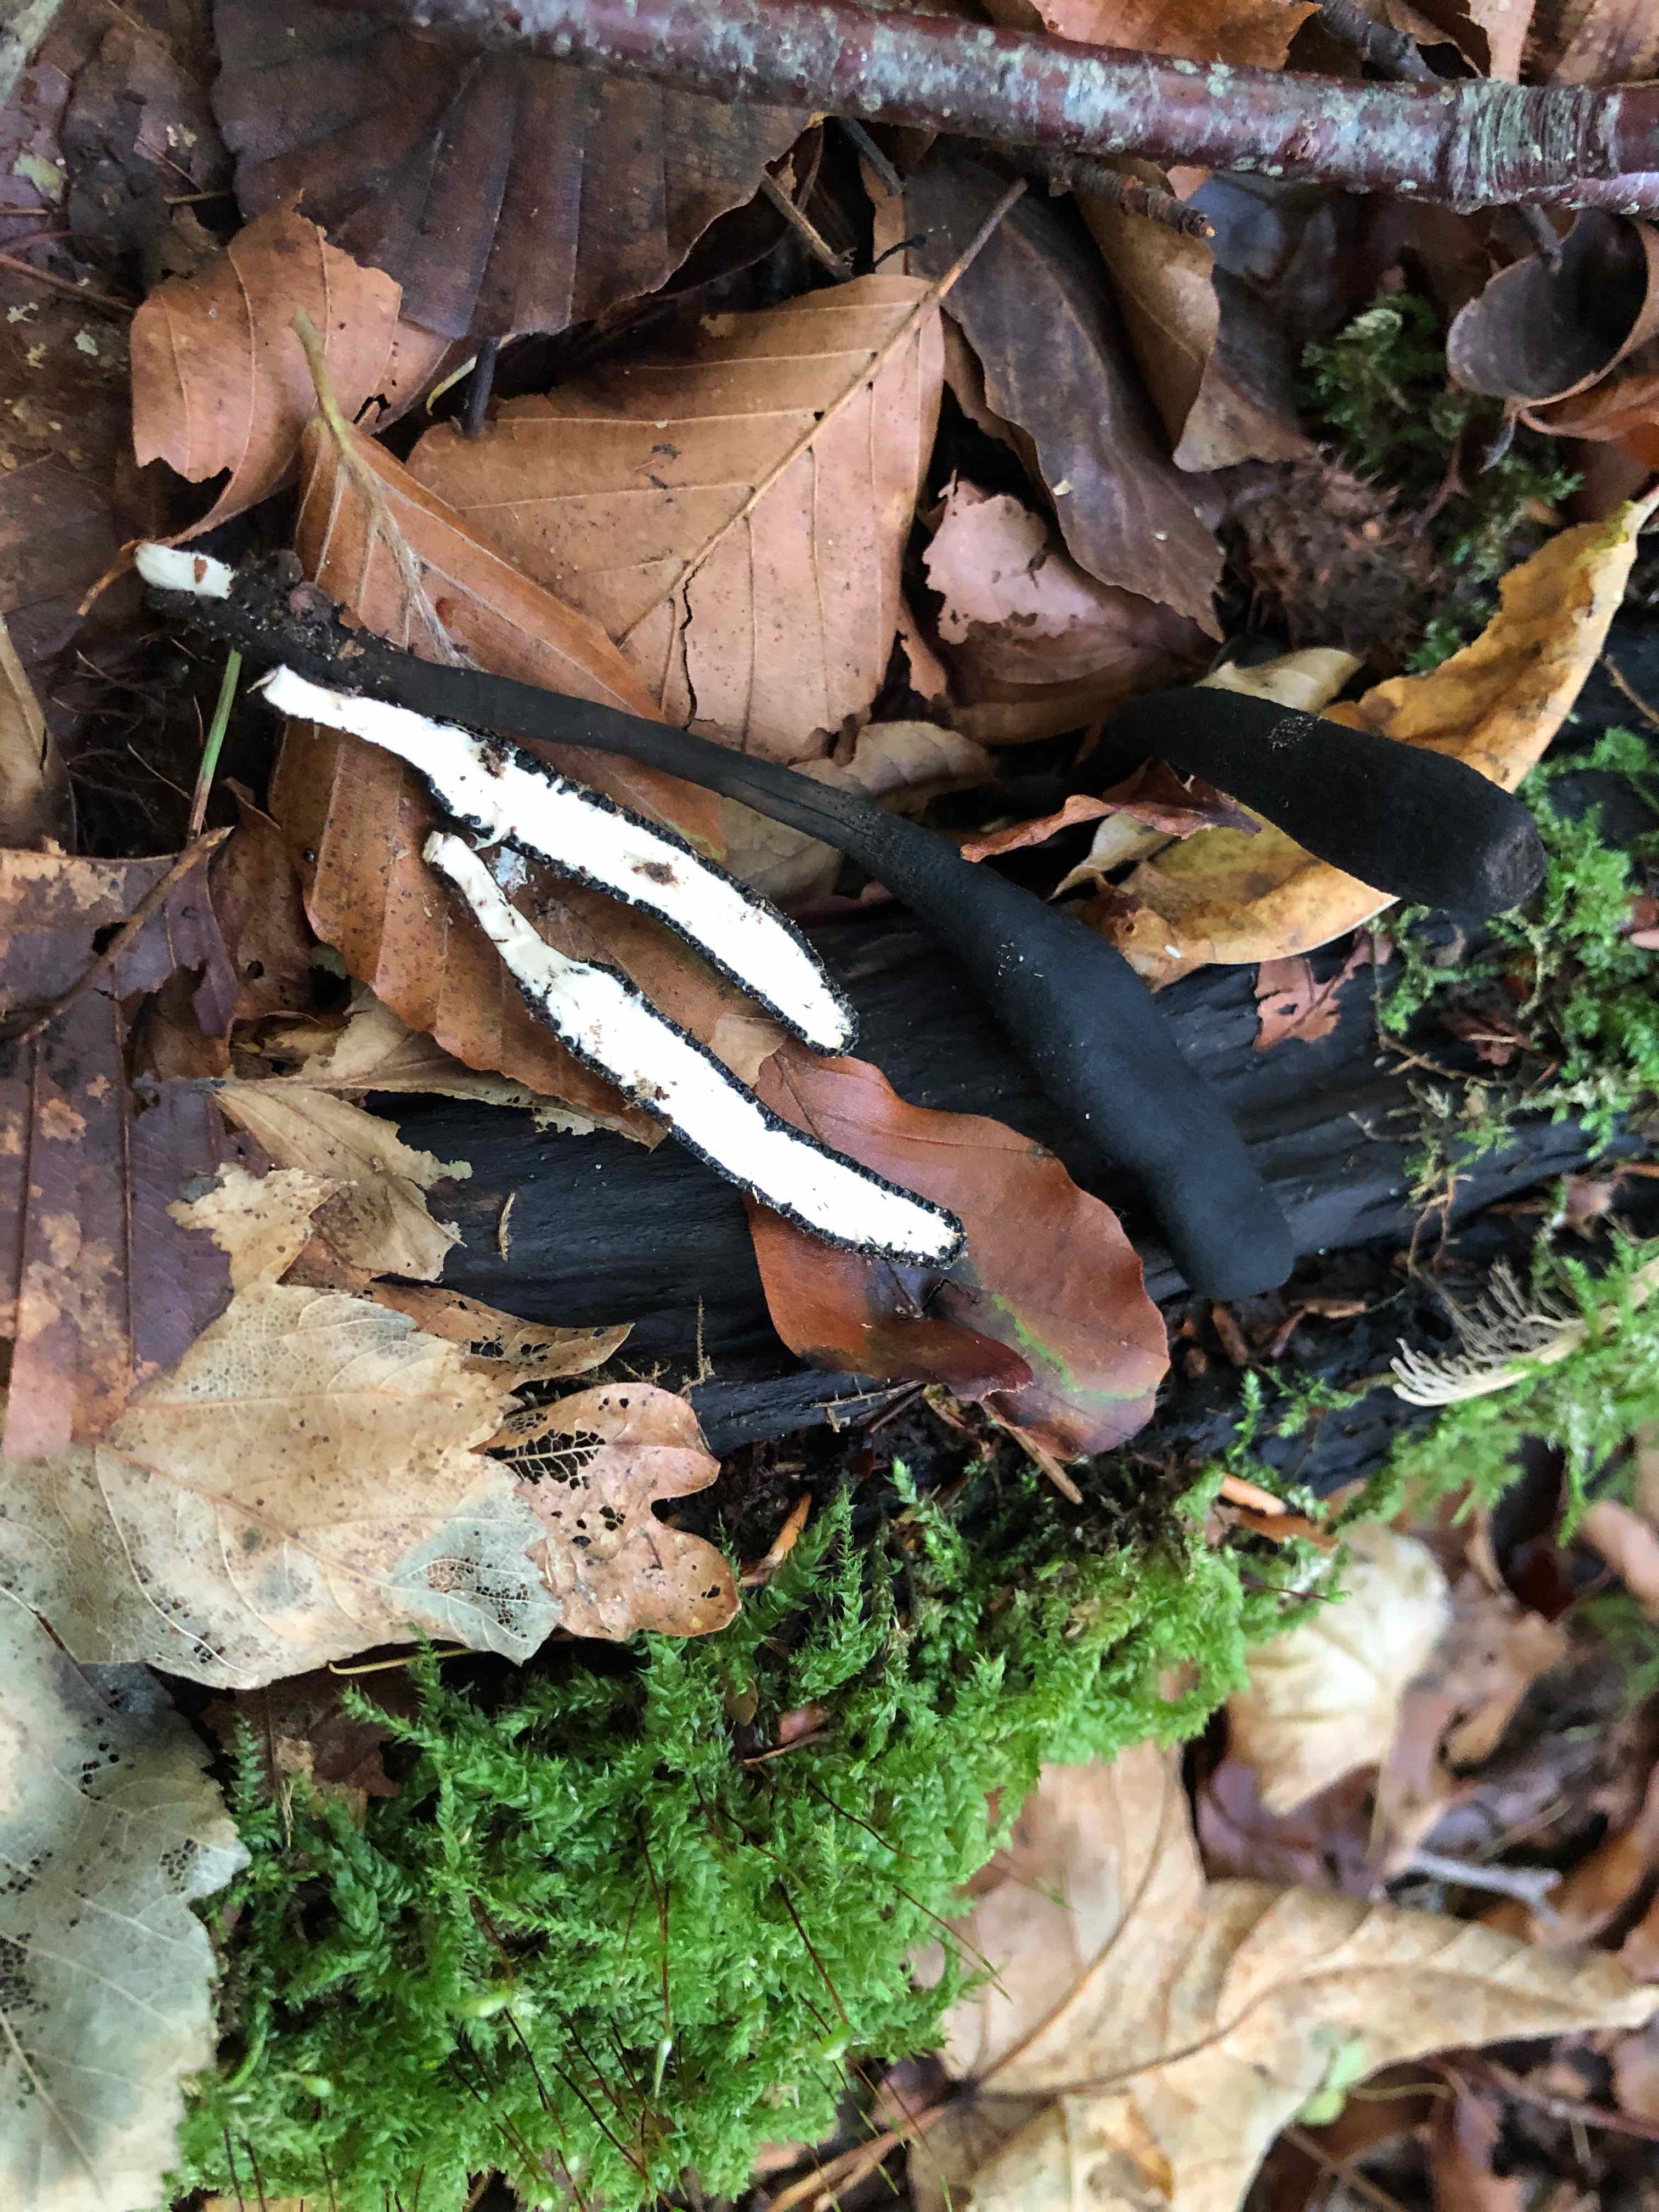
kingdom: Fungi
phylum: Ascomycota
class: Sordariomycetes
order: Xylariales
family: Xylariaceae
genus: Xylaria
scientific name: Xylaria longipes
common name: slank stødsvamp
